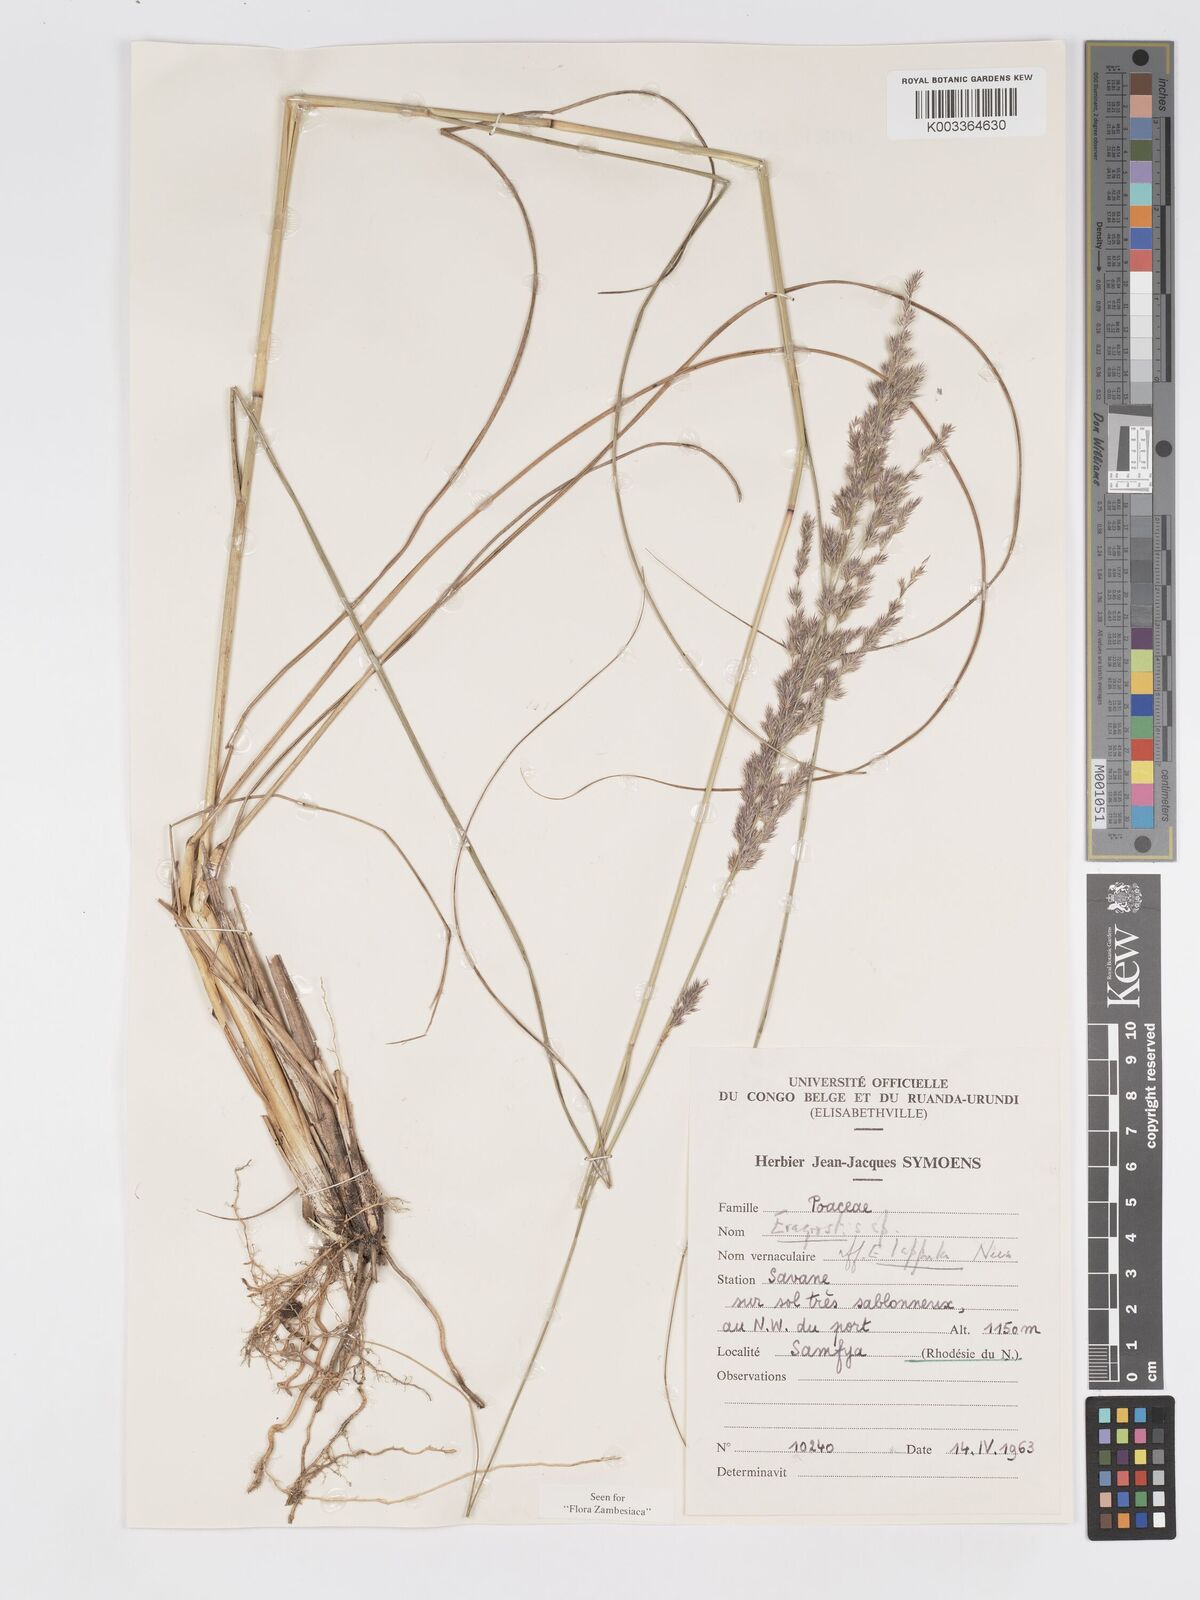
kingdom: Plantae
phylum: Tracheophyta
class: Liliopsida
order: Poales
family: Poaceae
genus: Eragrostis
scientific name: Eragrostis lappula
